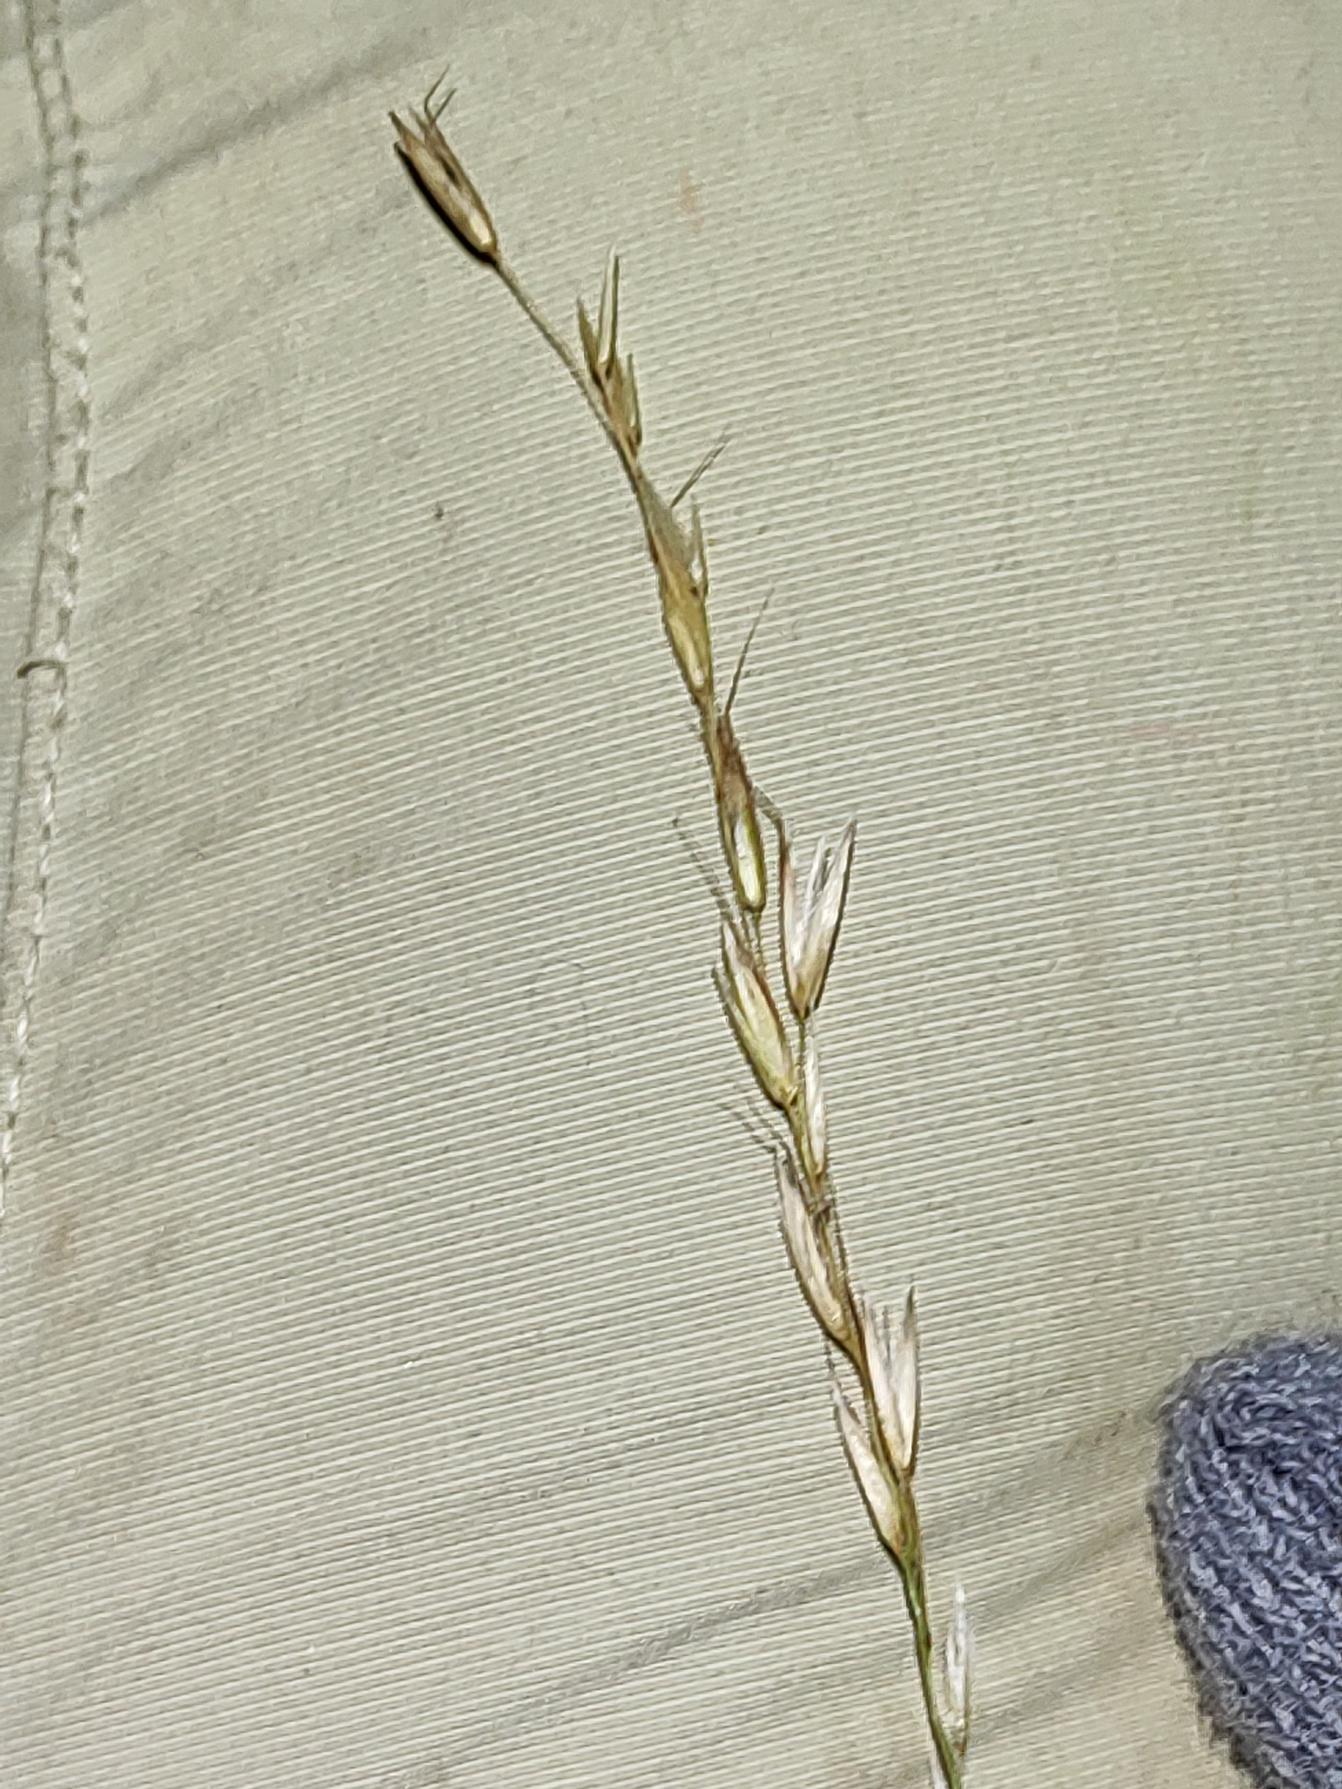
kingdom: Plantae
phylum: Tracheophyta
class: Liliopsida
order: Poales
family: Poaceae
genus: Arrhenatherum
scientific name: Arrhenatherum elatius
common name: Draphavre
